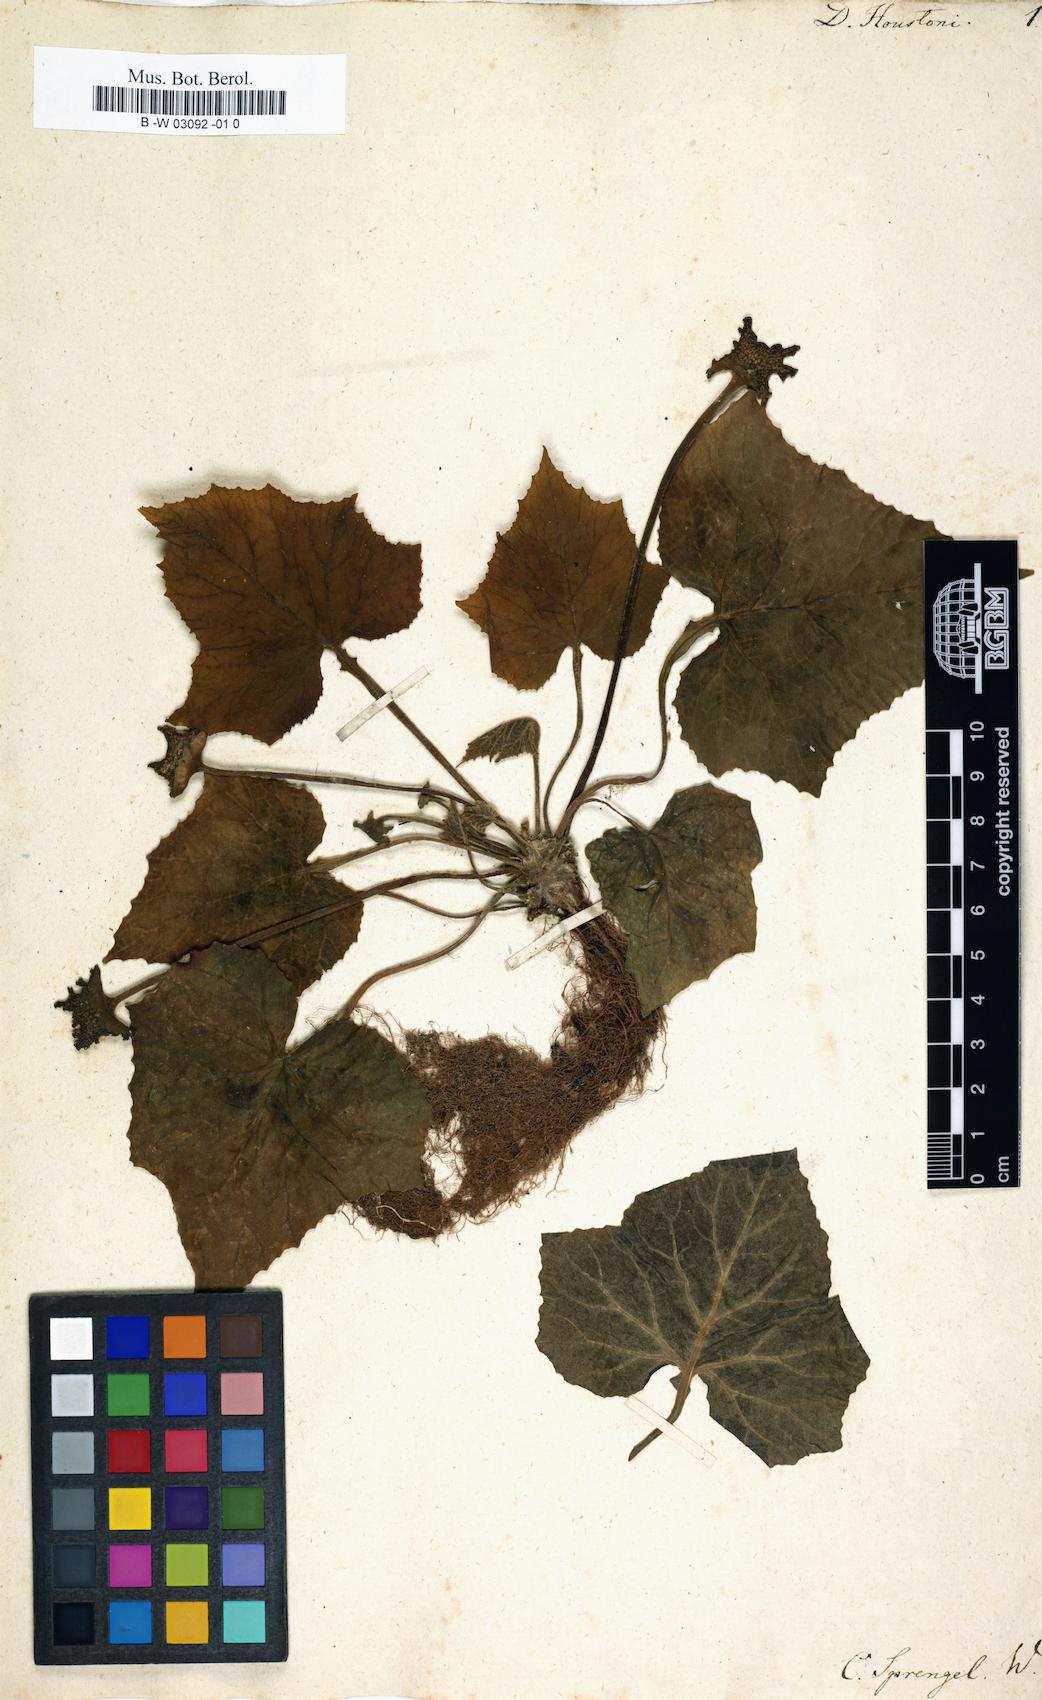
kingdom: Plantae
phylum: Tracheophyta
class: Magnoliopsida
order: Rosales
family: Moraceae
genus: Dorstenia
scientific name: Dorstenia contrajerva
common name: Tusilla
